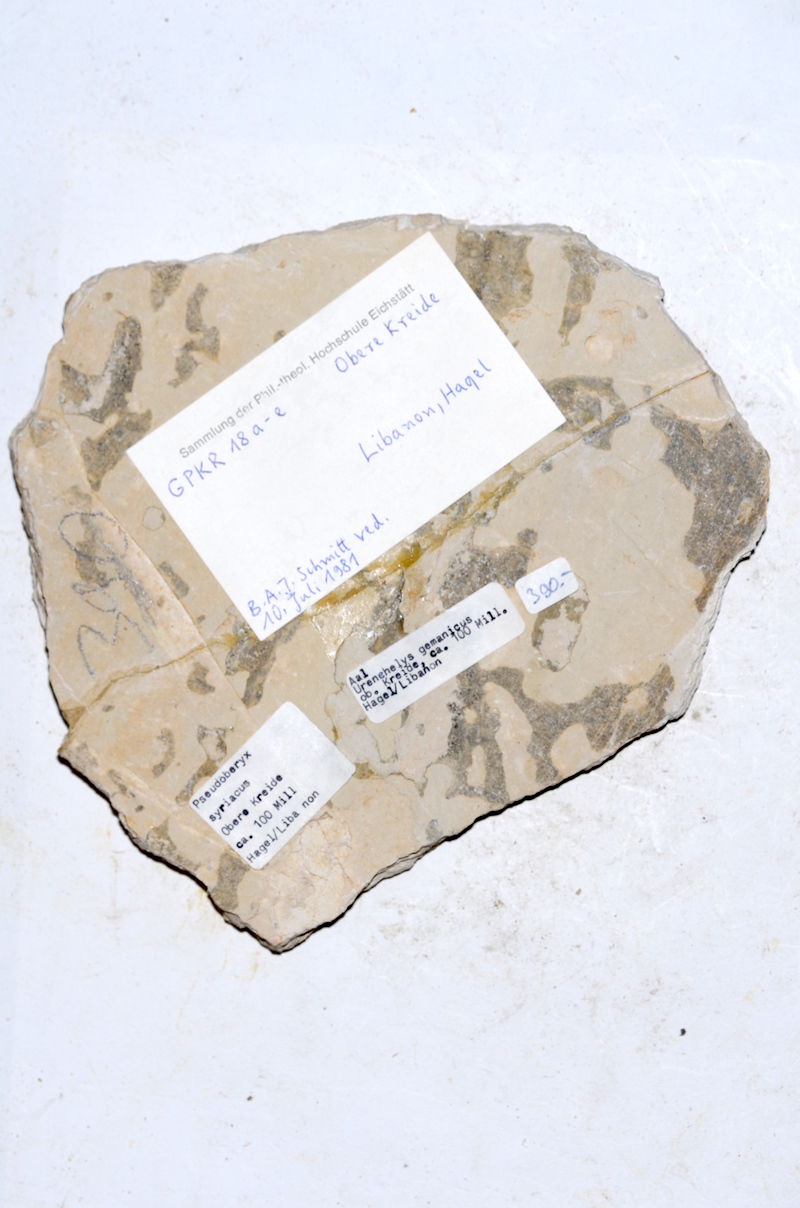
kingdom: Animalia
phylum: Chordata
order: Anguilliformes
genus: Hayenchelys
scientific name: Hayenchelys Urenchelys germanus
